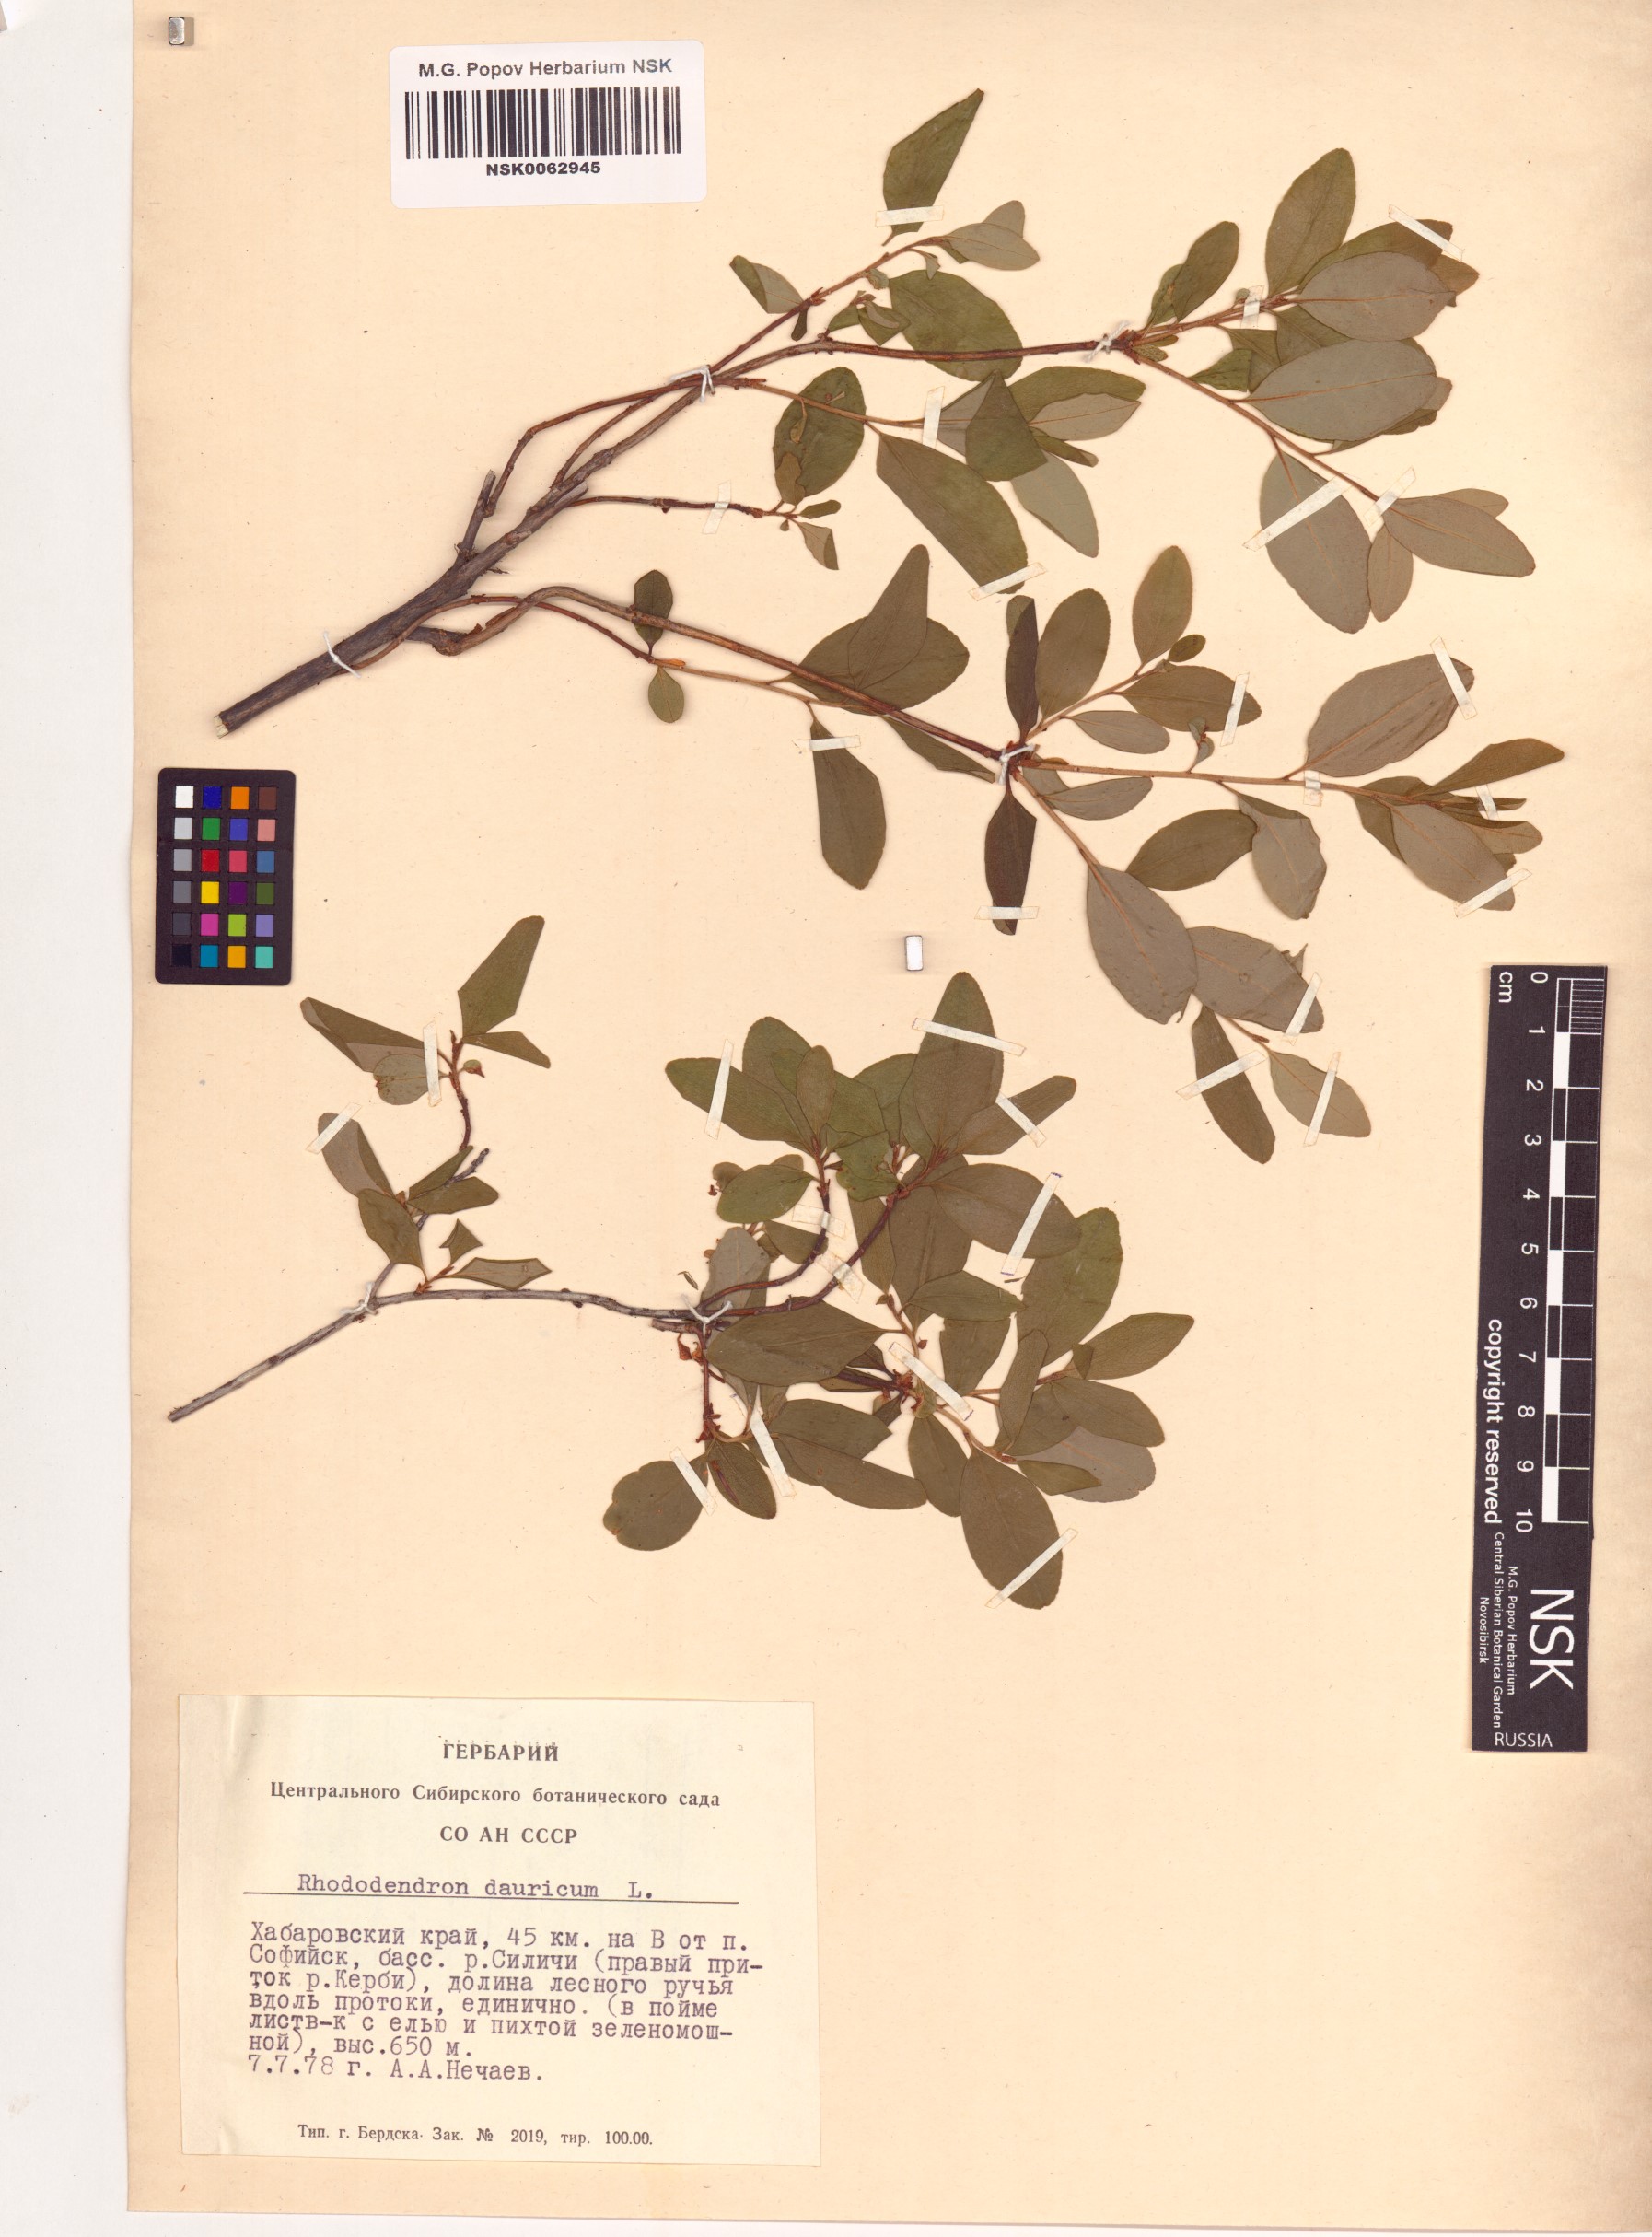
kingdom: Plantae
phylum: Tracheophyta
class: Magnoliopsida
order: Ericales
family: Ericaceae
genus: Rhododendron
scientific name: Rhododendron dauricum
